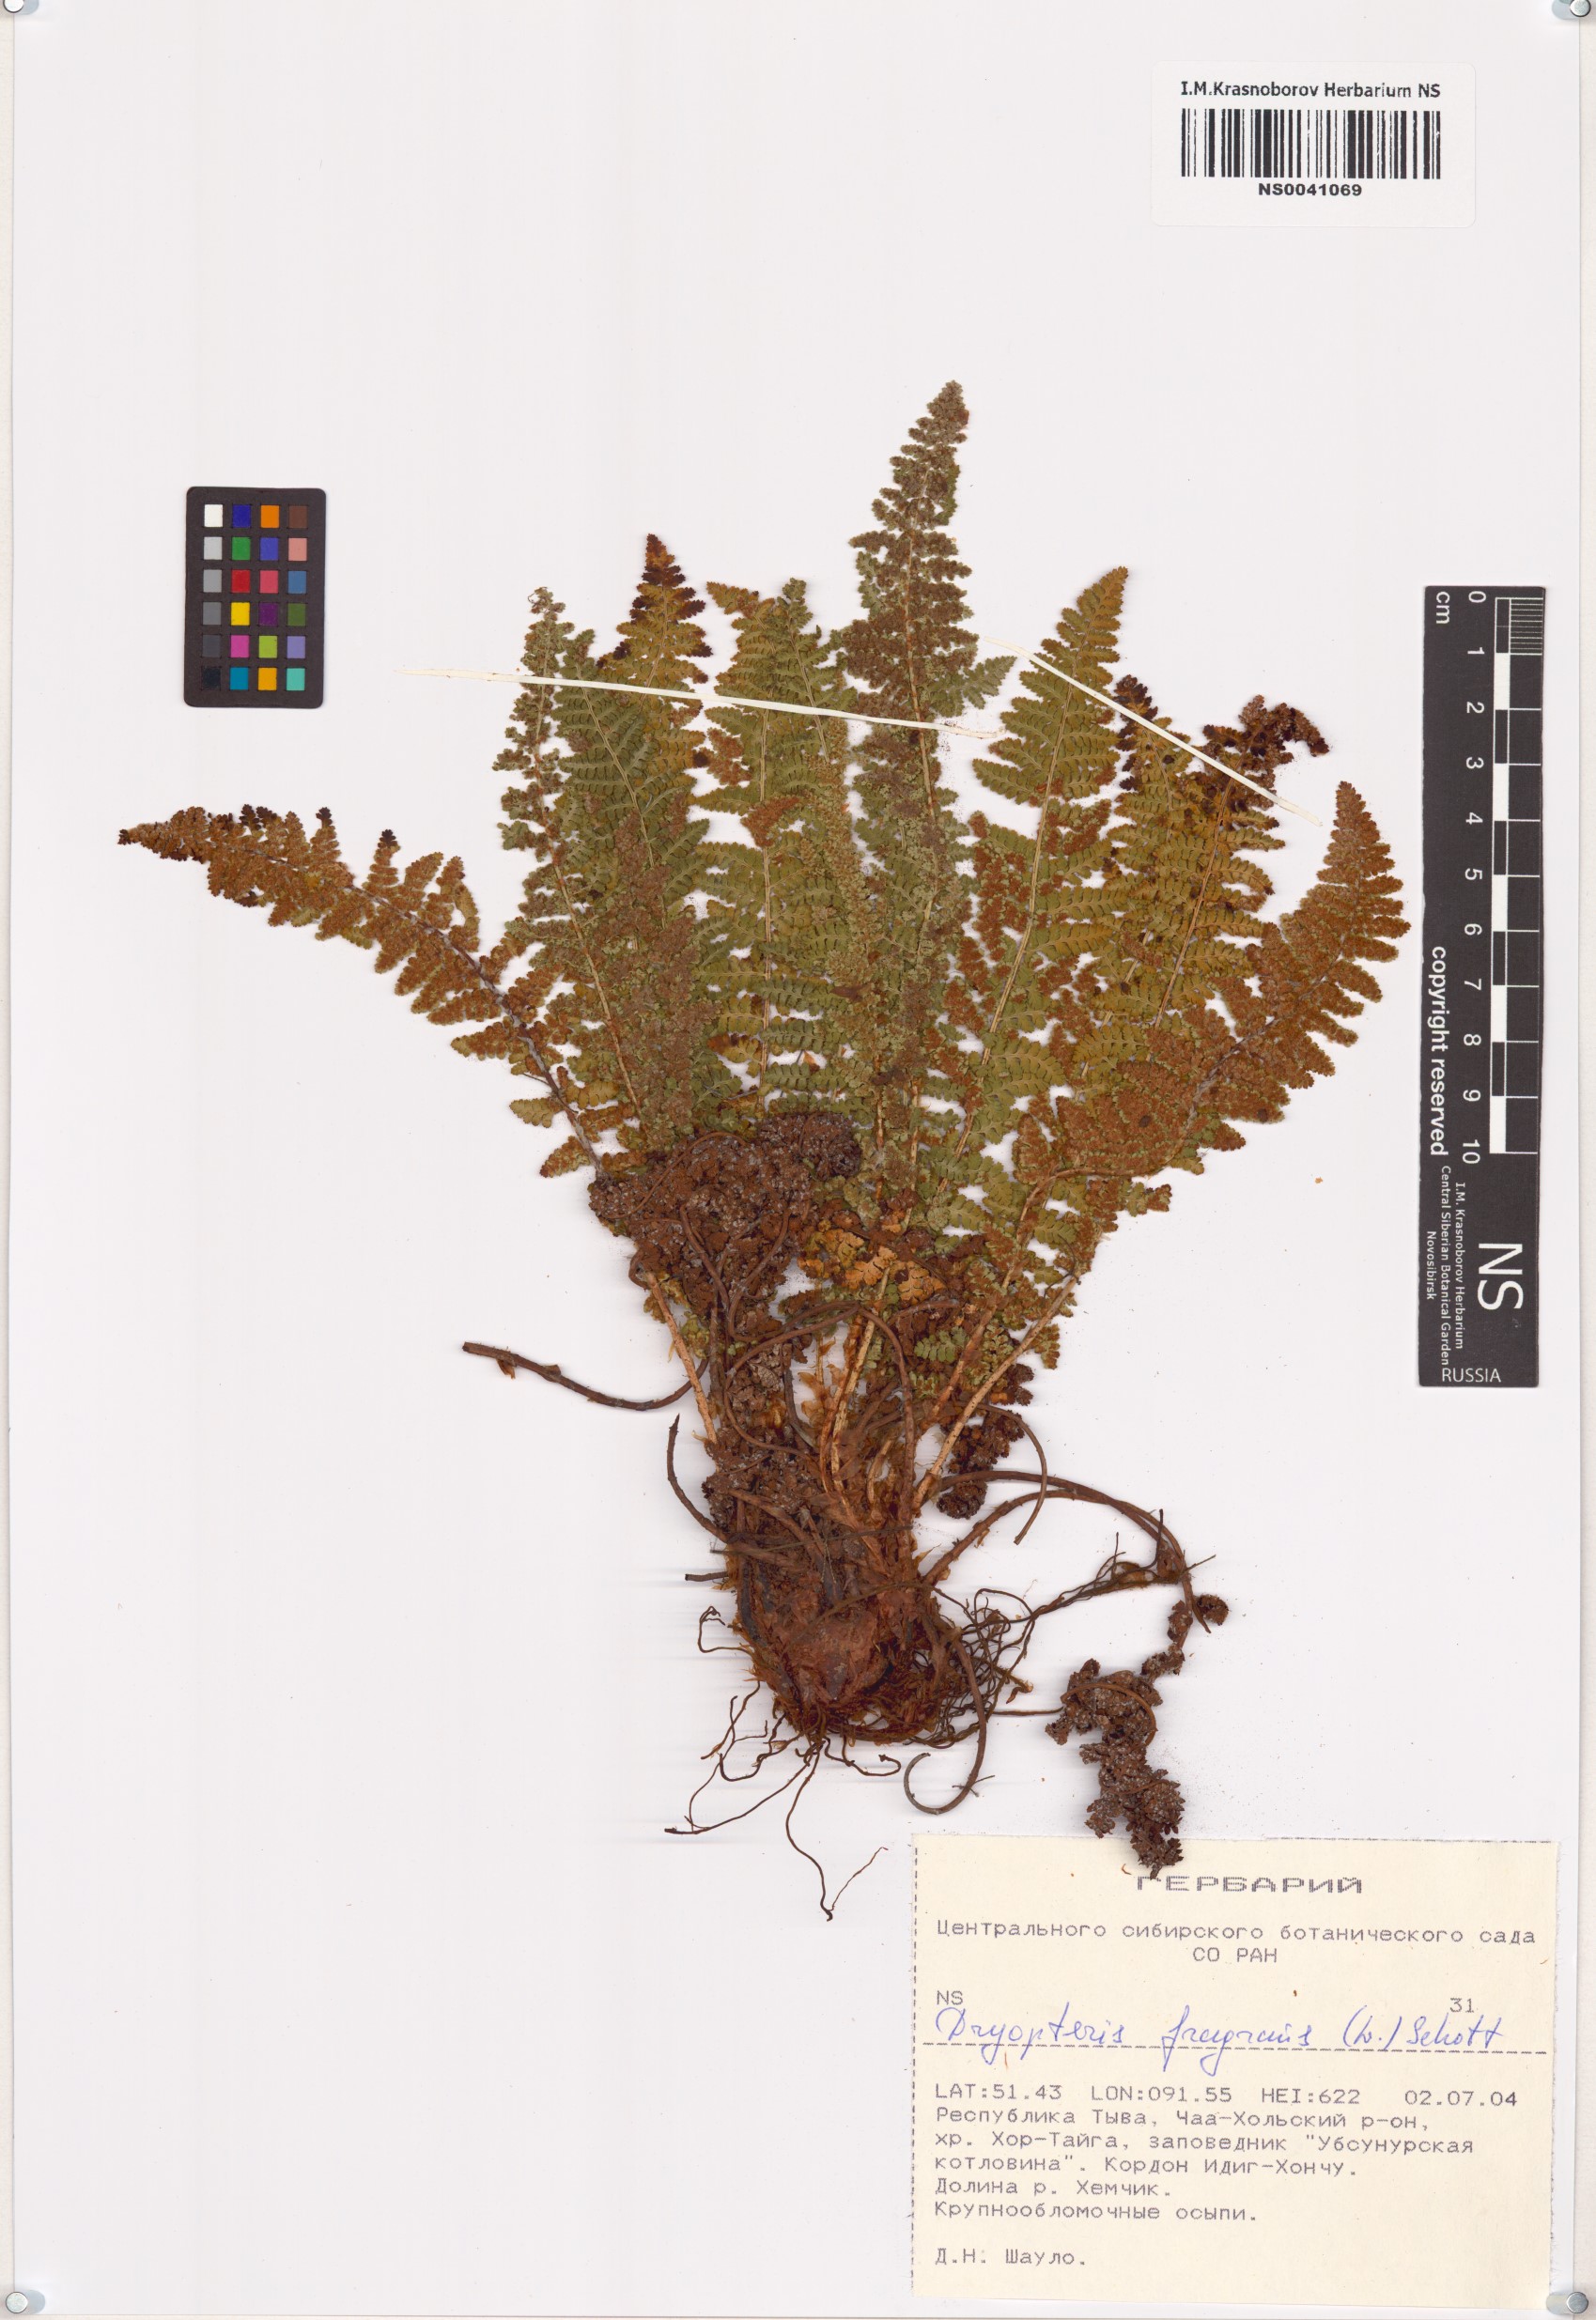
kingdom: Plantae
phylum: Tracheophyta
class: Polypodiopsida
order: Polypodiales
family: Dryopteridaceae
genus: Dryopteris
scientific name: Dryopteris fragrans
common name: Fragrant wood fern
